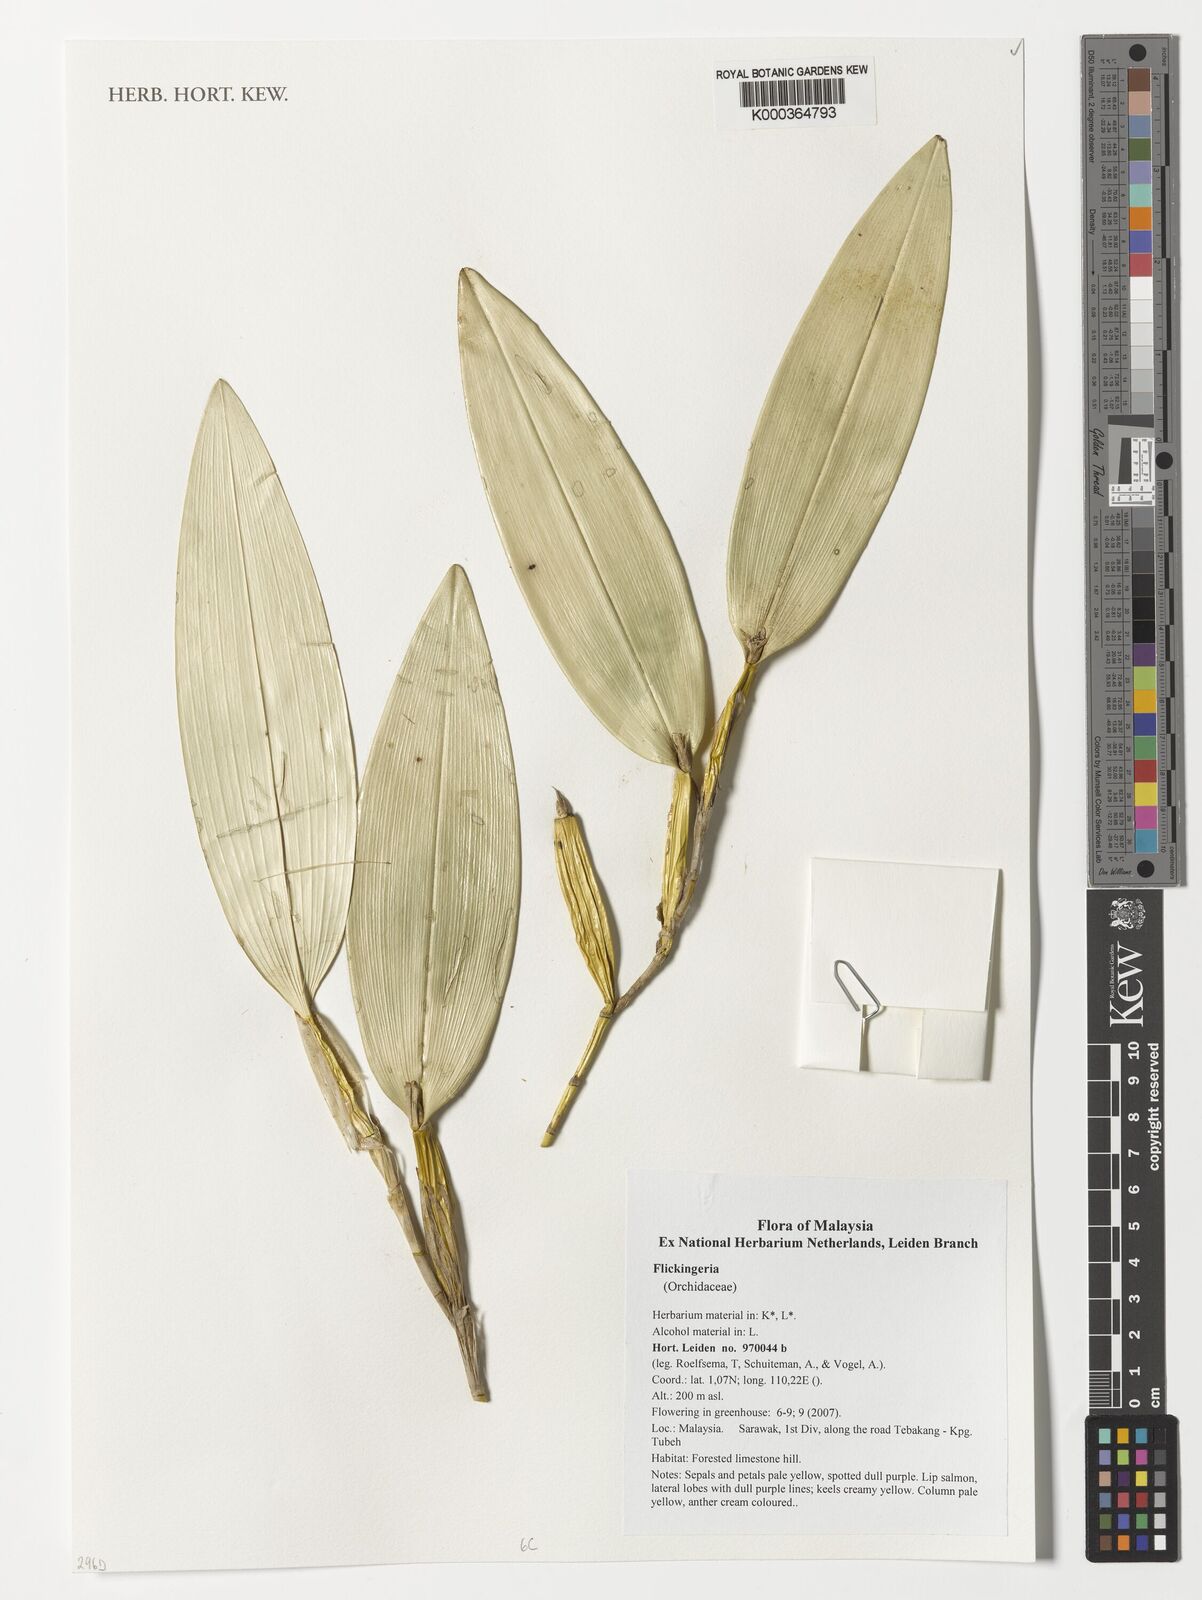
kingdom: Plantae
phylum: Tracheophyta
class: Liliopsida
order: Asparagales
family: Orchidaceae
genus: Dendrobium
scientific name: Dendrobium
